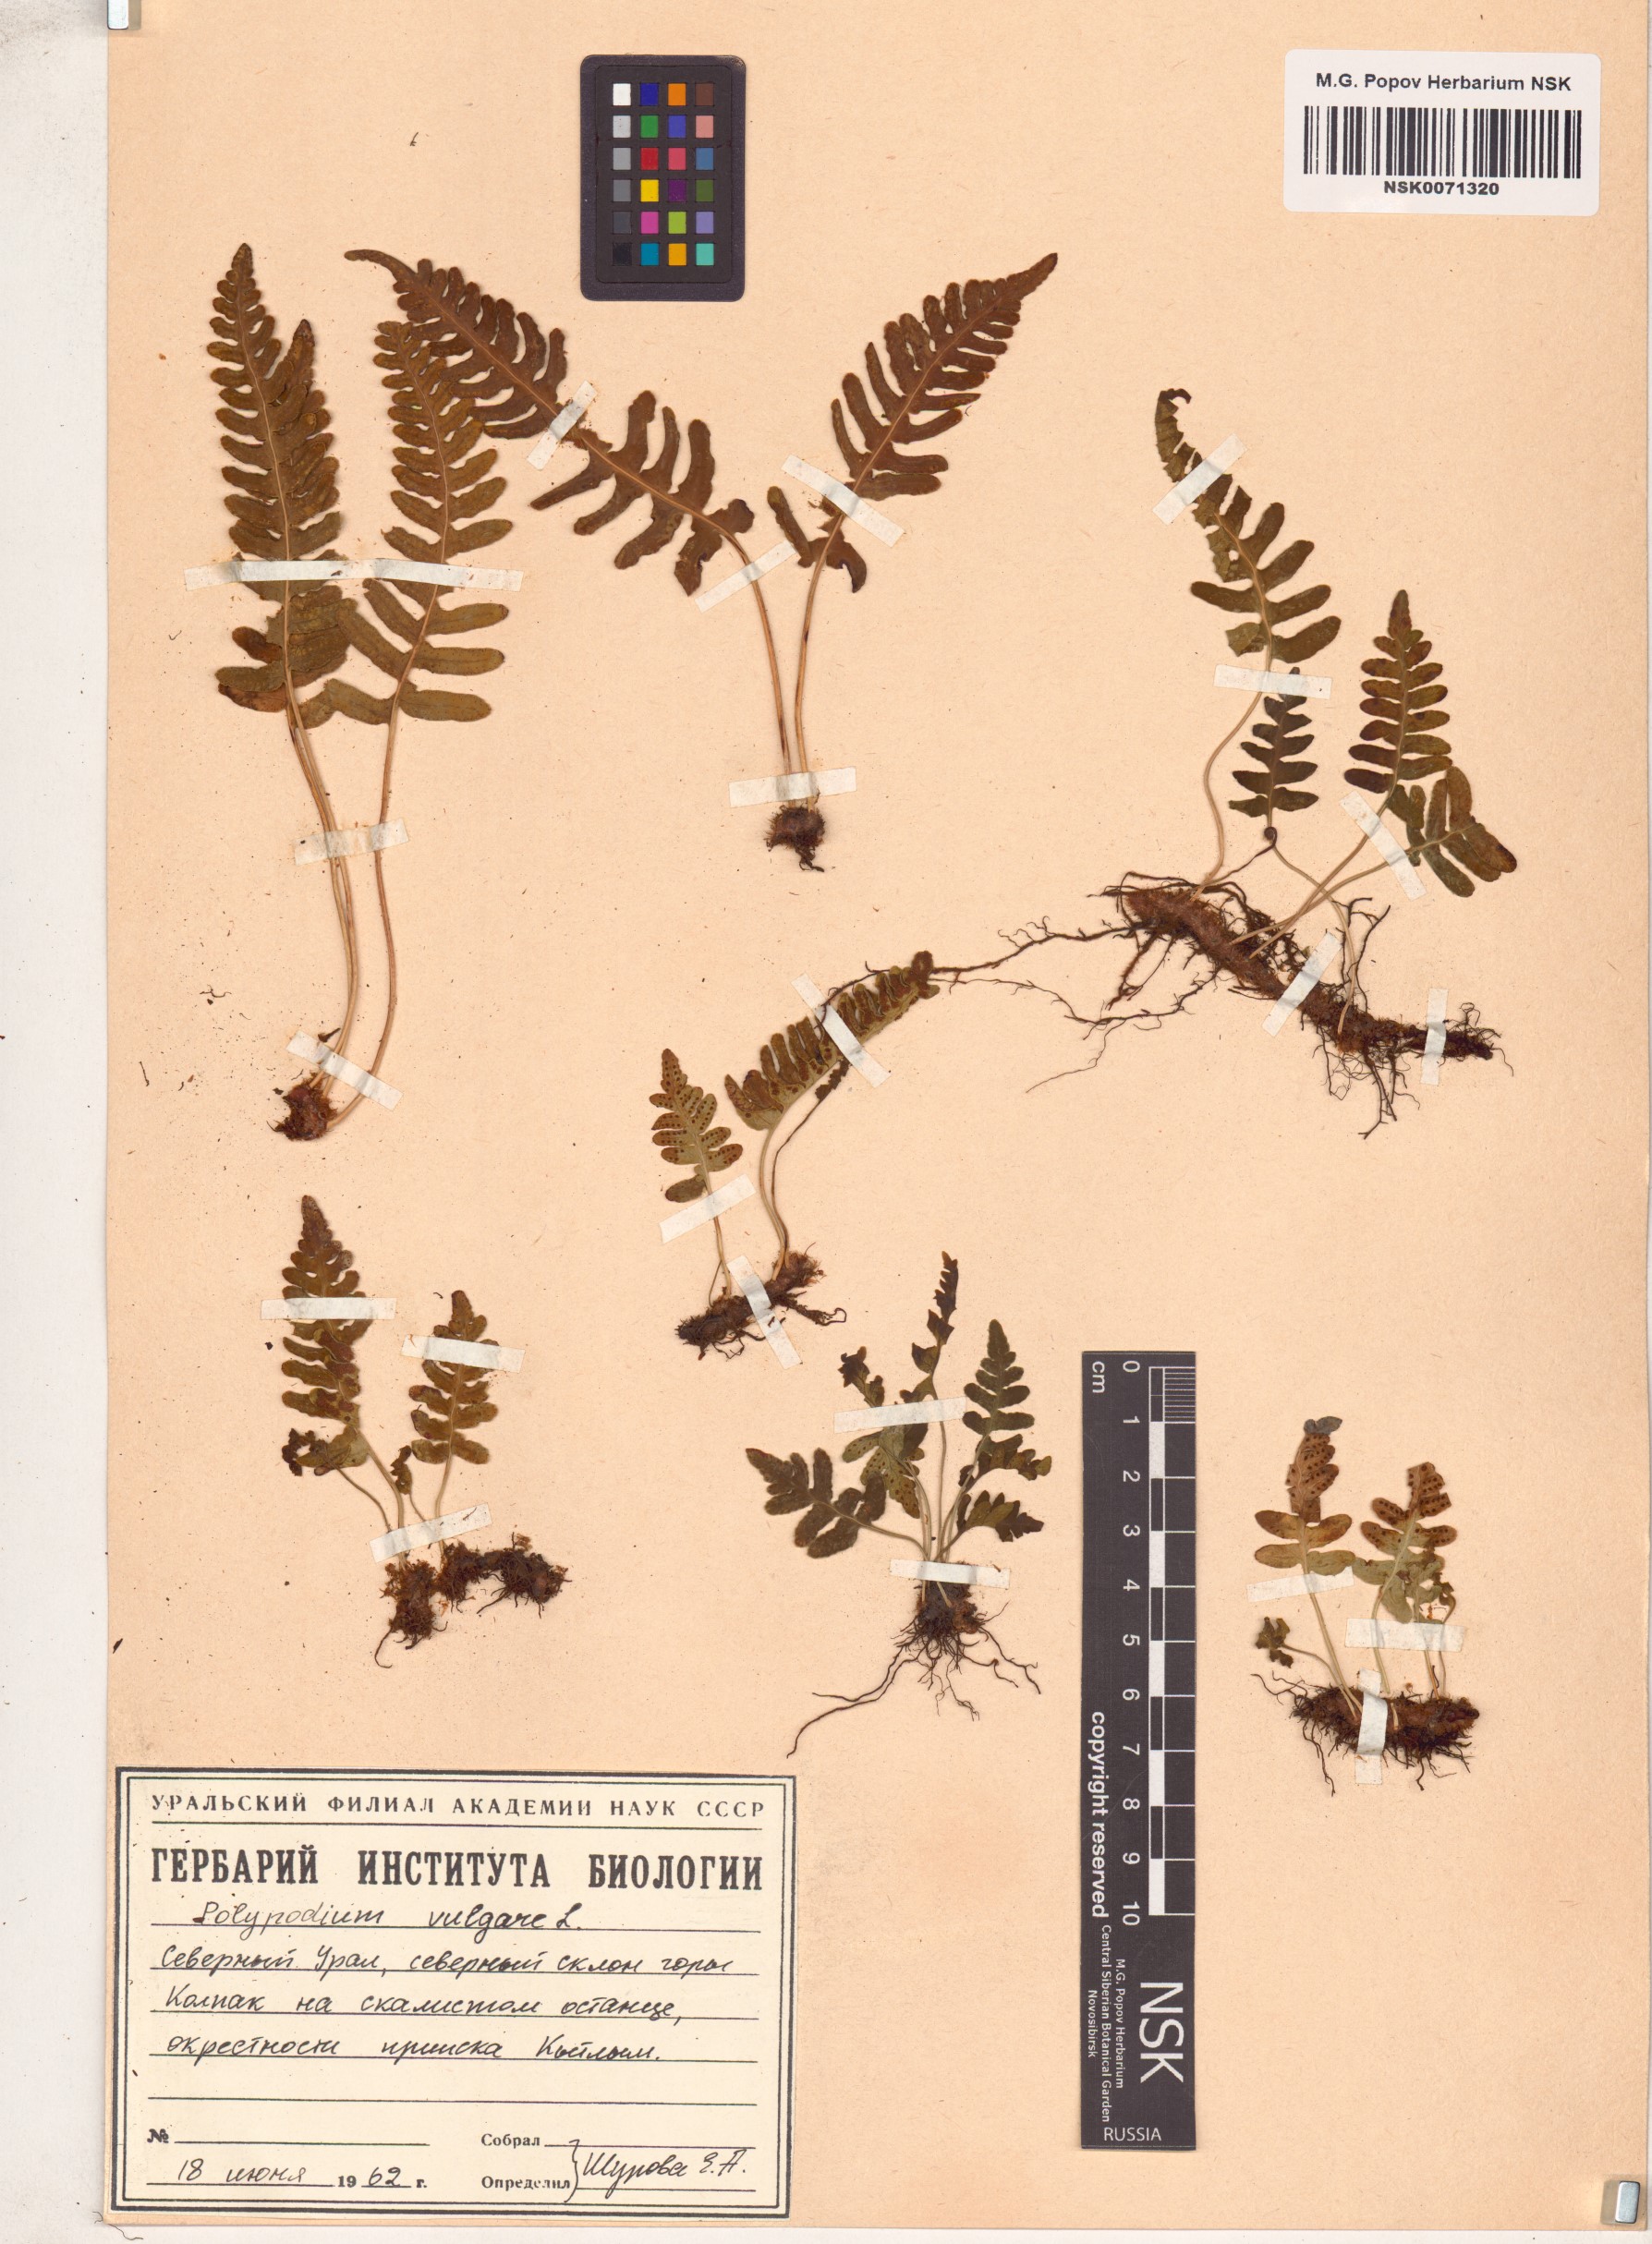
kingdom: Plantae
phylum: Tracheophyta
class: Polypodiopsida
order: Polypodiales
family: Polypodiaceae
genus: Polypodium
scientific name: Polypodium vulgare
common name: Common polypody
